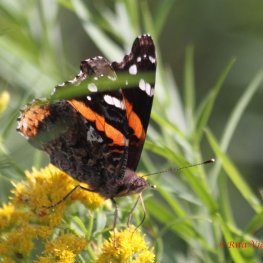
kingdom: Animalia
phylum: Arthropoda
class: Insecta
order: Lepidoptera
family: Nymphalidae
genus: Vanessa
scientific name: Vanessa atalanta
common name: Red Admiral
